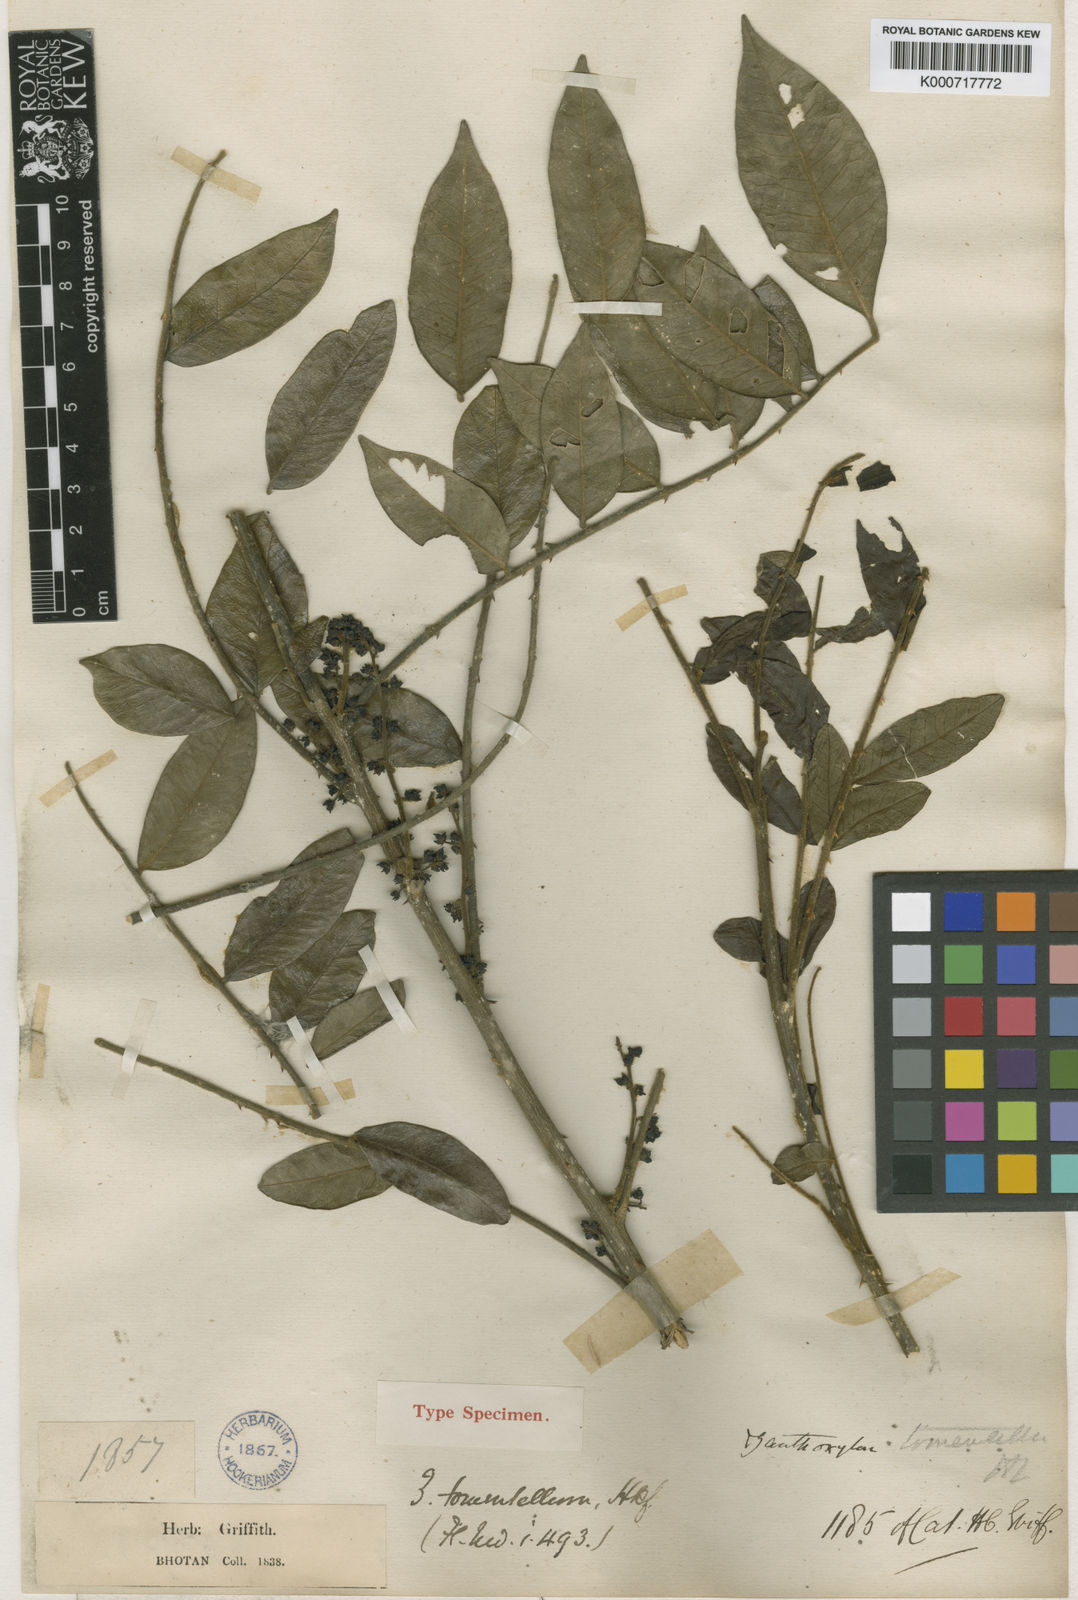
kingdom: Plantae
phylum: Tracheophyta
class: Magnoliopsida
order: Sapindales
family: Rutaceae
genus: Zanthoxylum
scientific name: Zanthoxylum tomentellum
